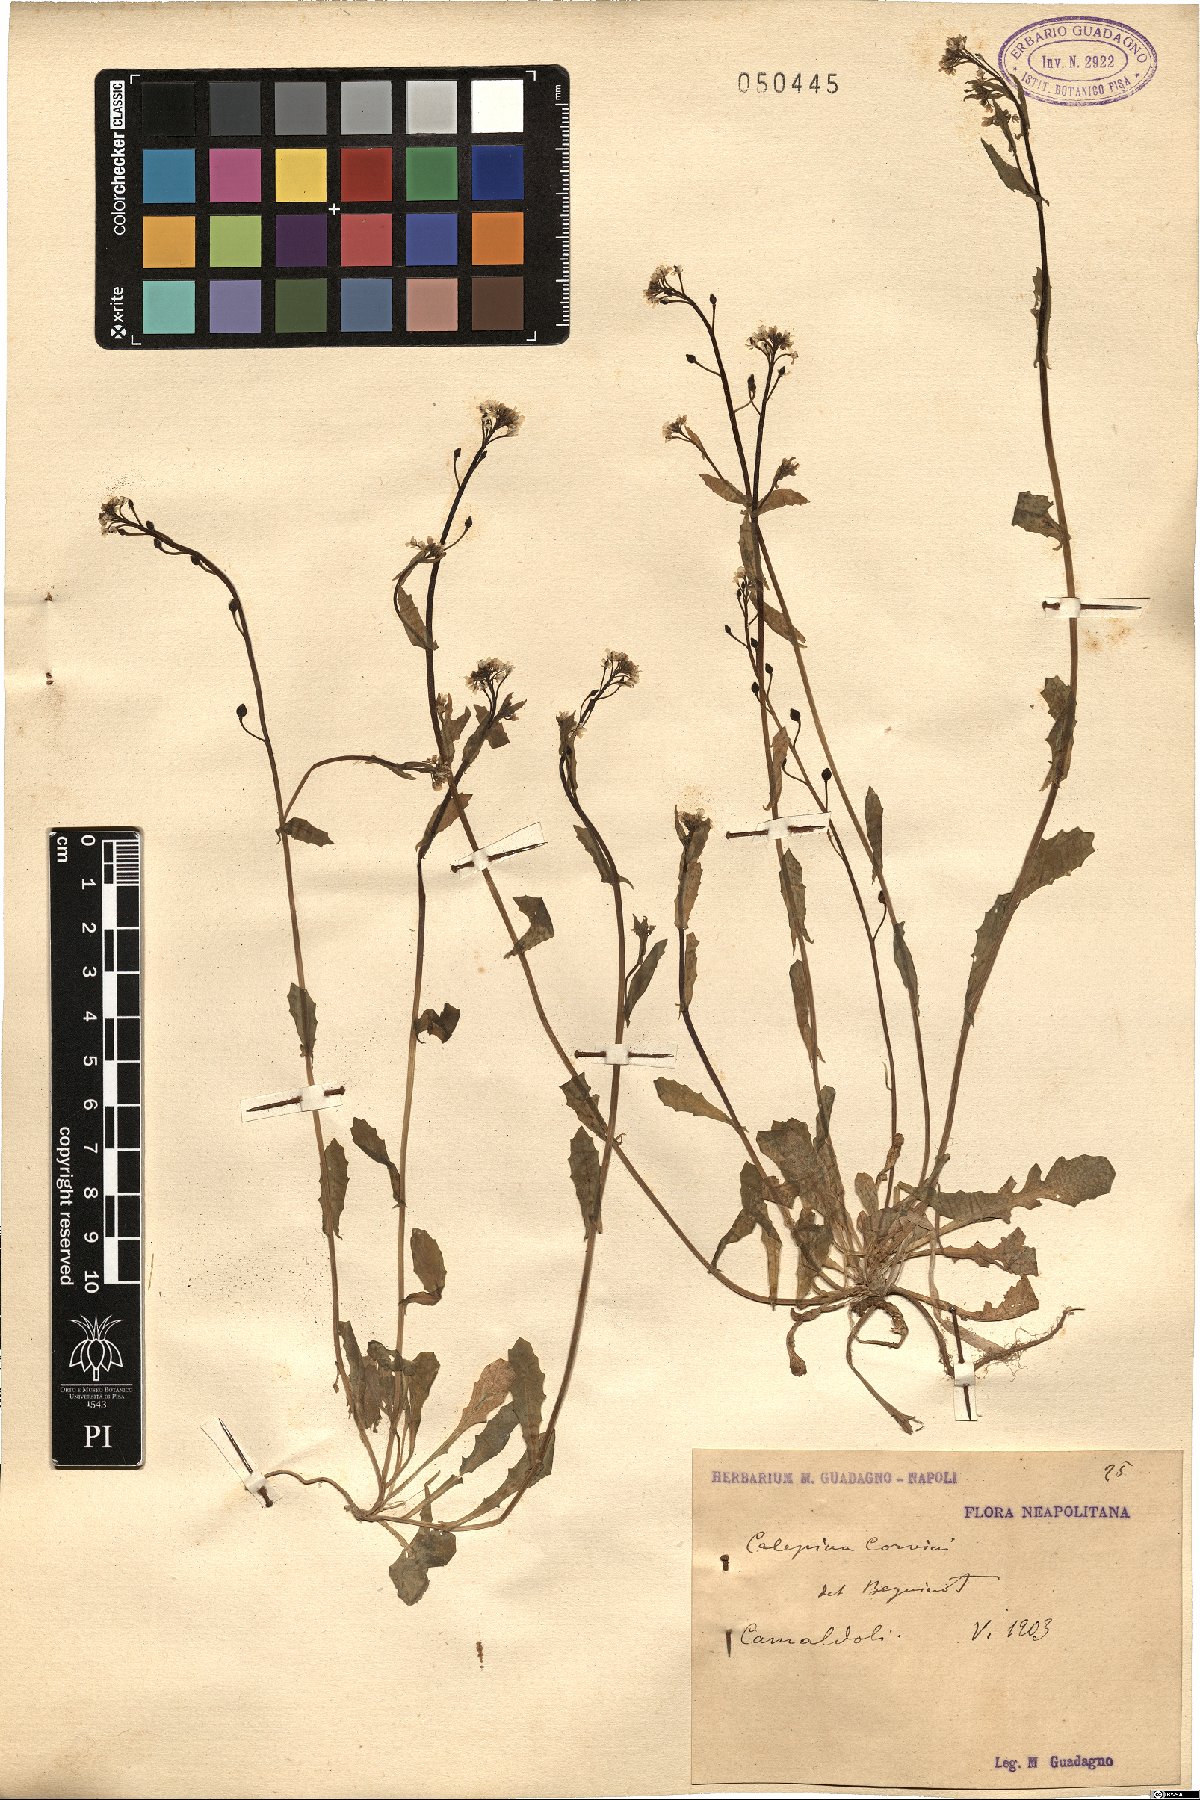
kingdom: Plantae
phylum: Tracheophyta
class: Magnoliopsida
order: Brassicales
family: Brassicaceae
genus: Calepina
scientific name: Calepina irregularis
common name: White ballmustard
